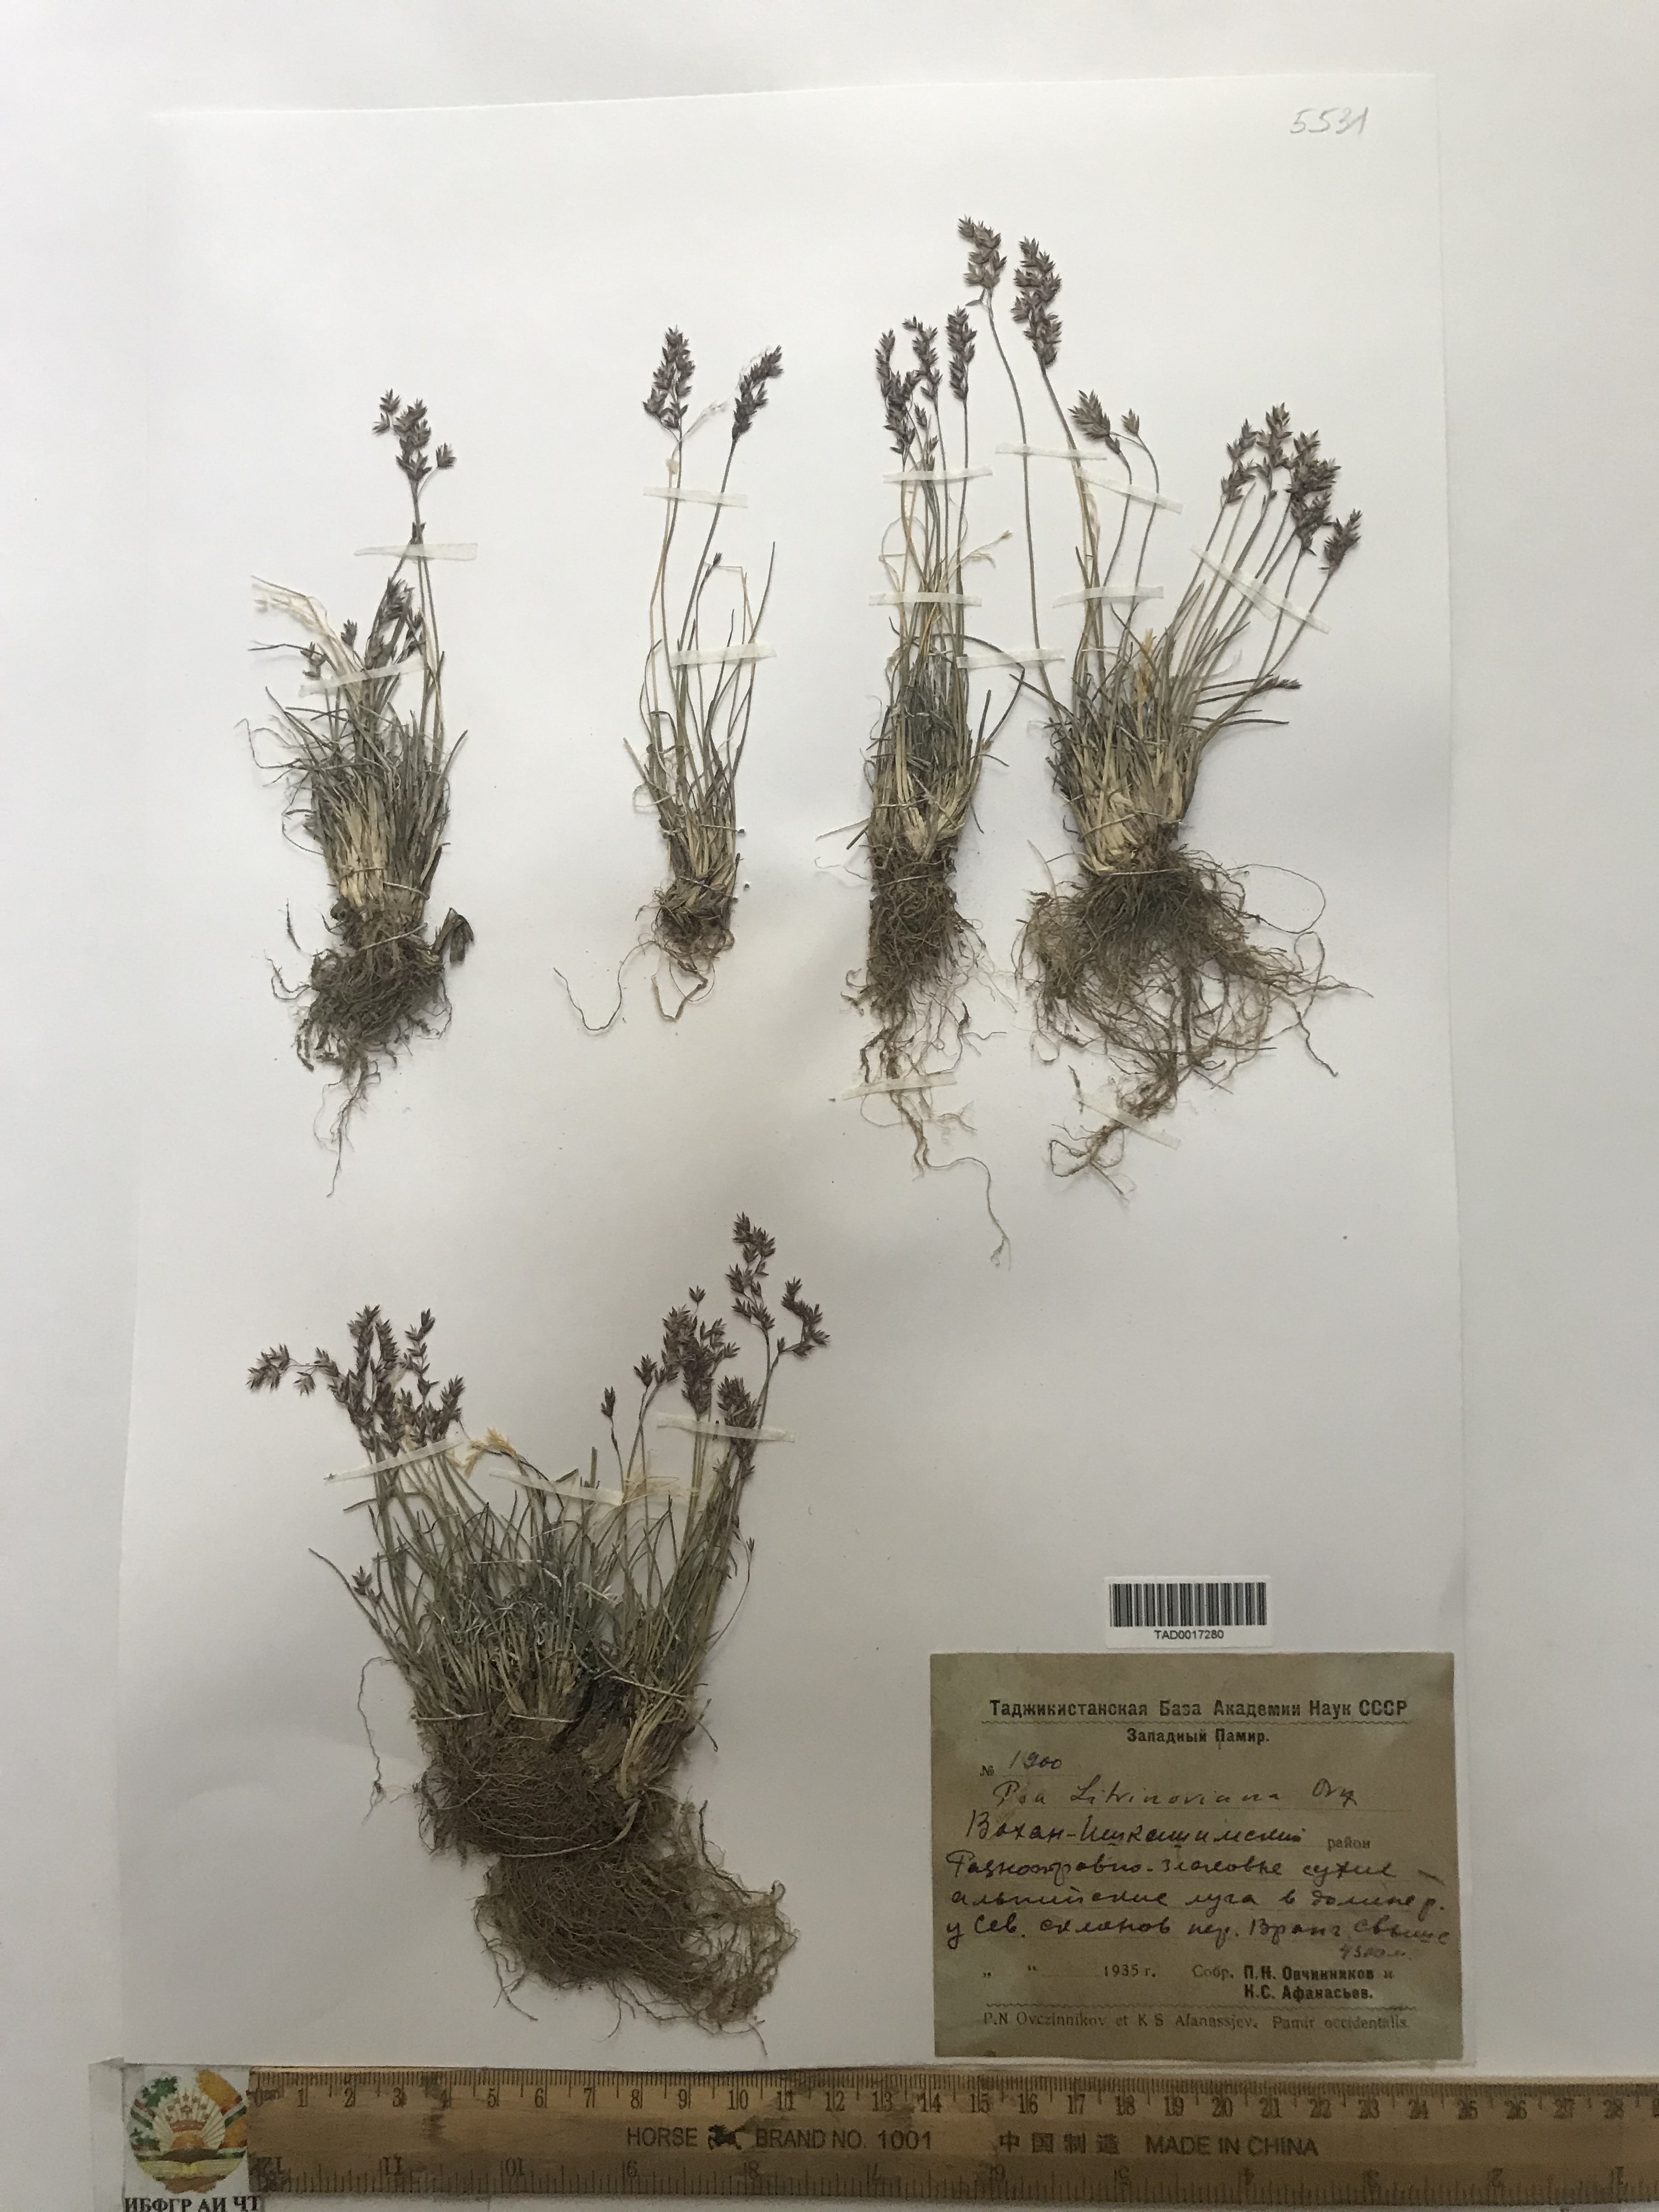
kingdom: Plantae
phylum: Tracheophyta
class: Liliopsida
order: Poales
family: Poaceae
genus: Poa
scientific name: Poa glauca
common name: Glaucous bluegrass
